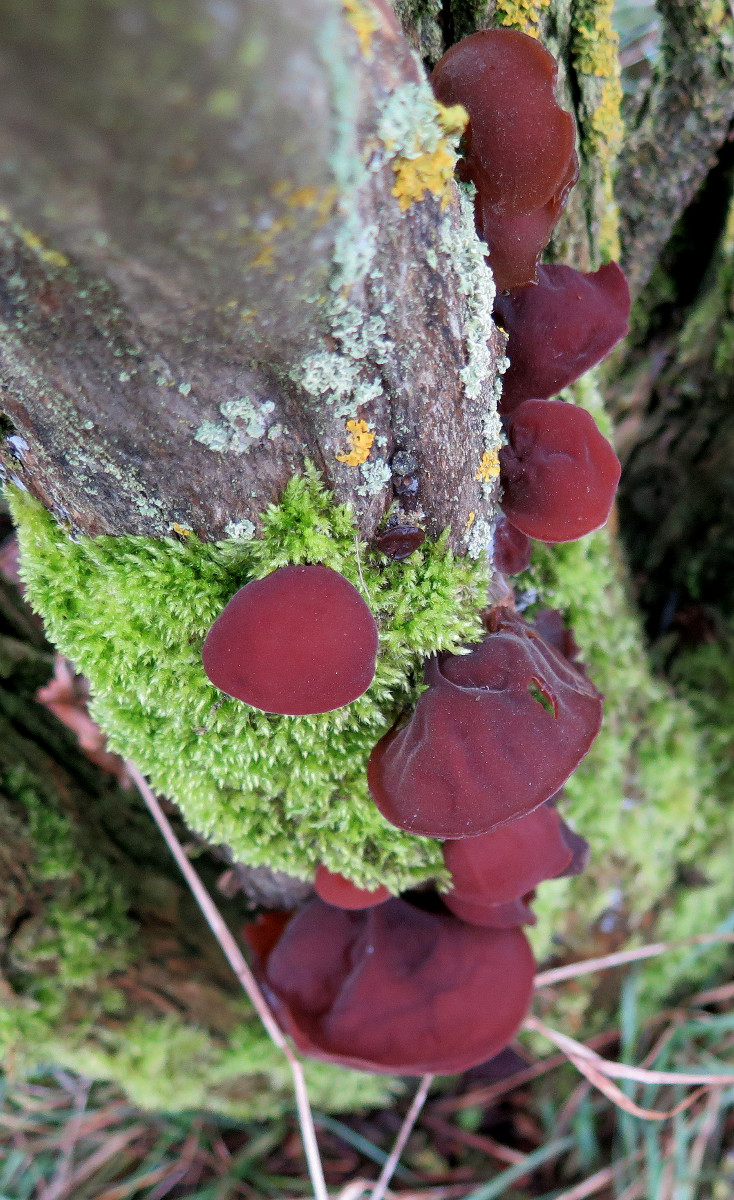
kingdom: Fungi
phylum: Basidiomycota
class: Agaricomycetes
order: Auriculariales
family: Auriculariaceae
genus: Auricularia
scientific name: Auricularia auricula-judae
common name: almindelig judasøre
